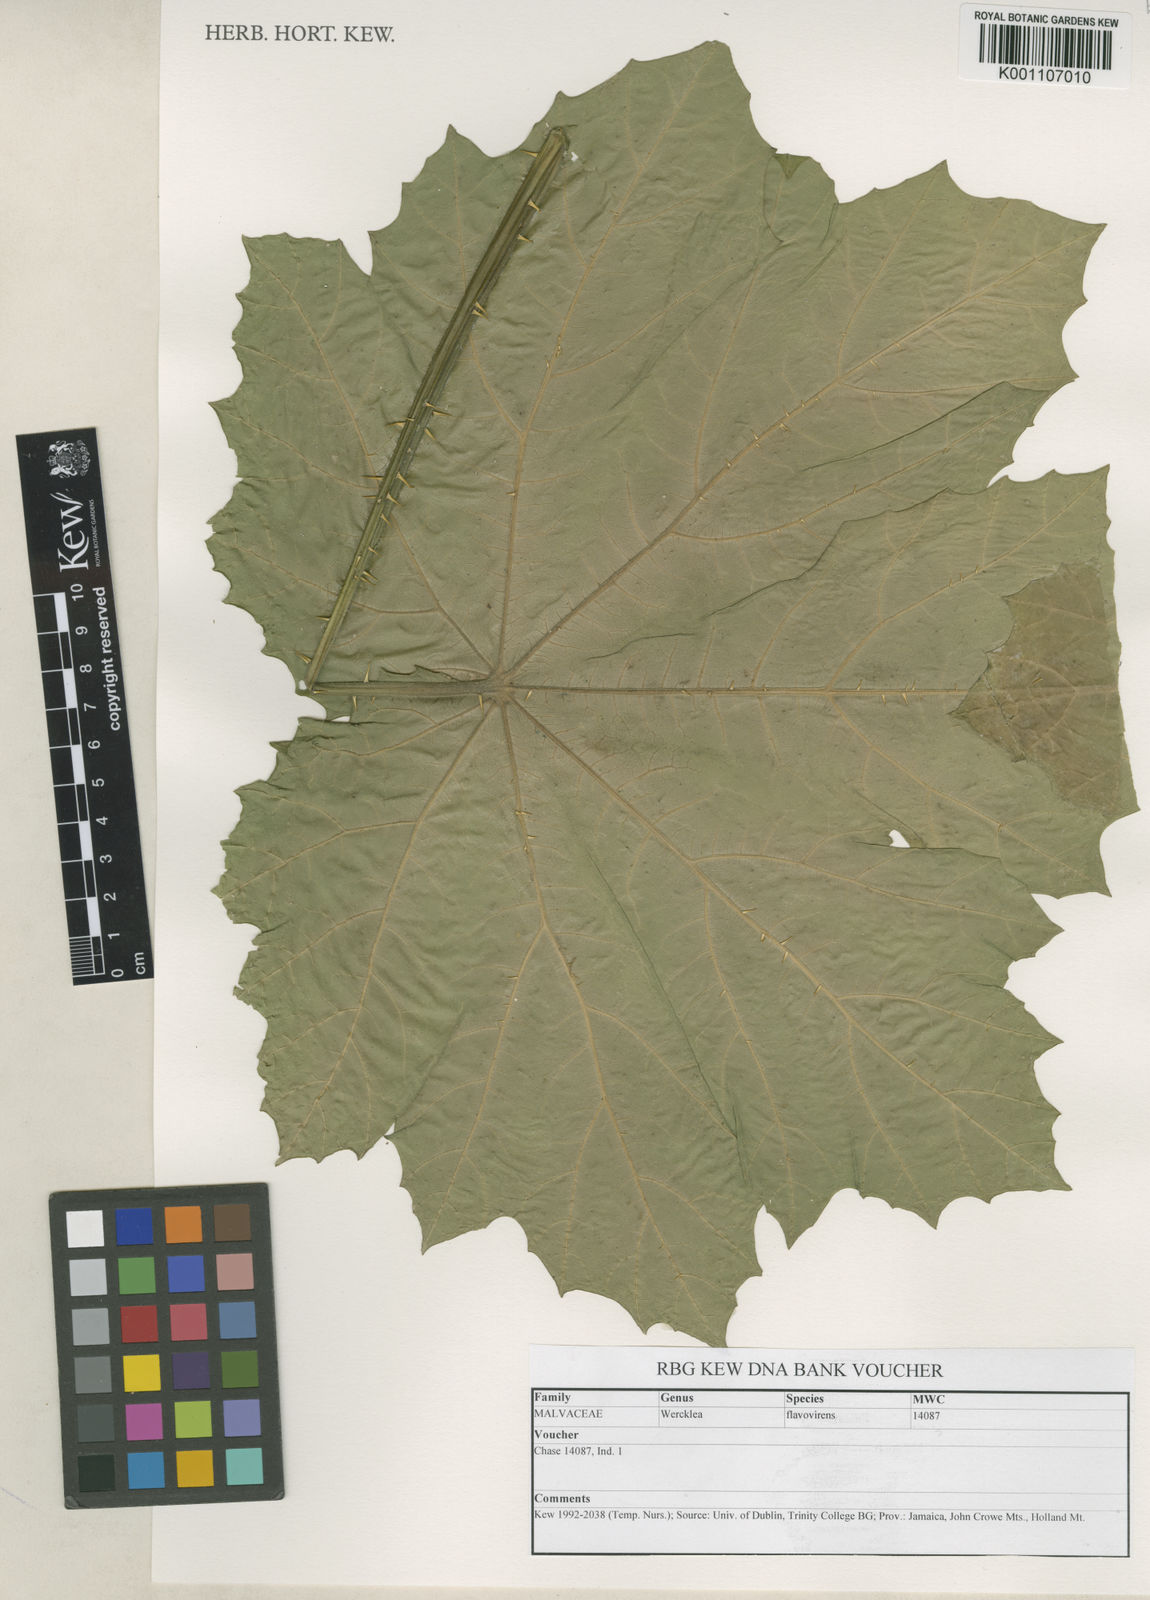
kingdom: Plantae
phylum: Tracheophyta
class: Magnoliopsida
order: Malvales
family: Malvaceae
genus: Wercklea
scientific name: Wercklea flavovirens
